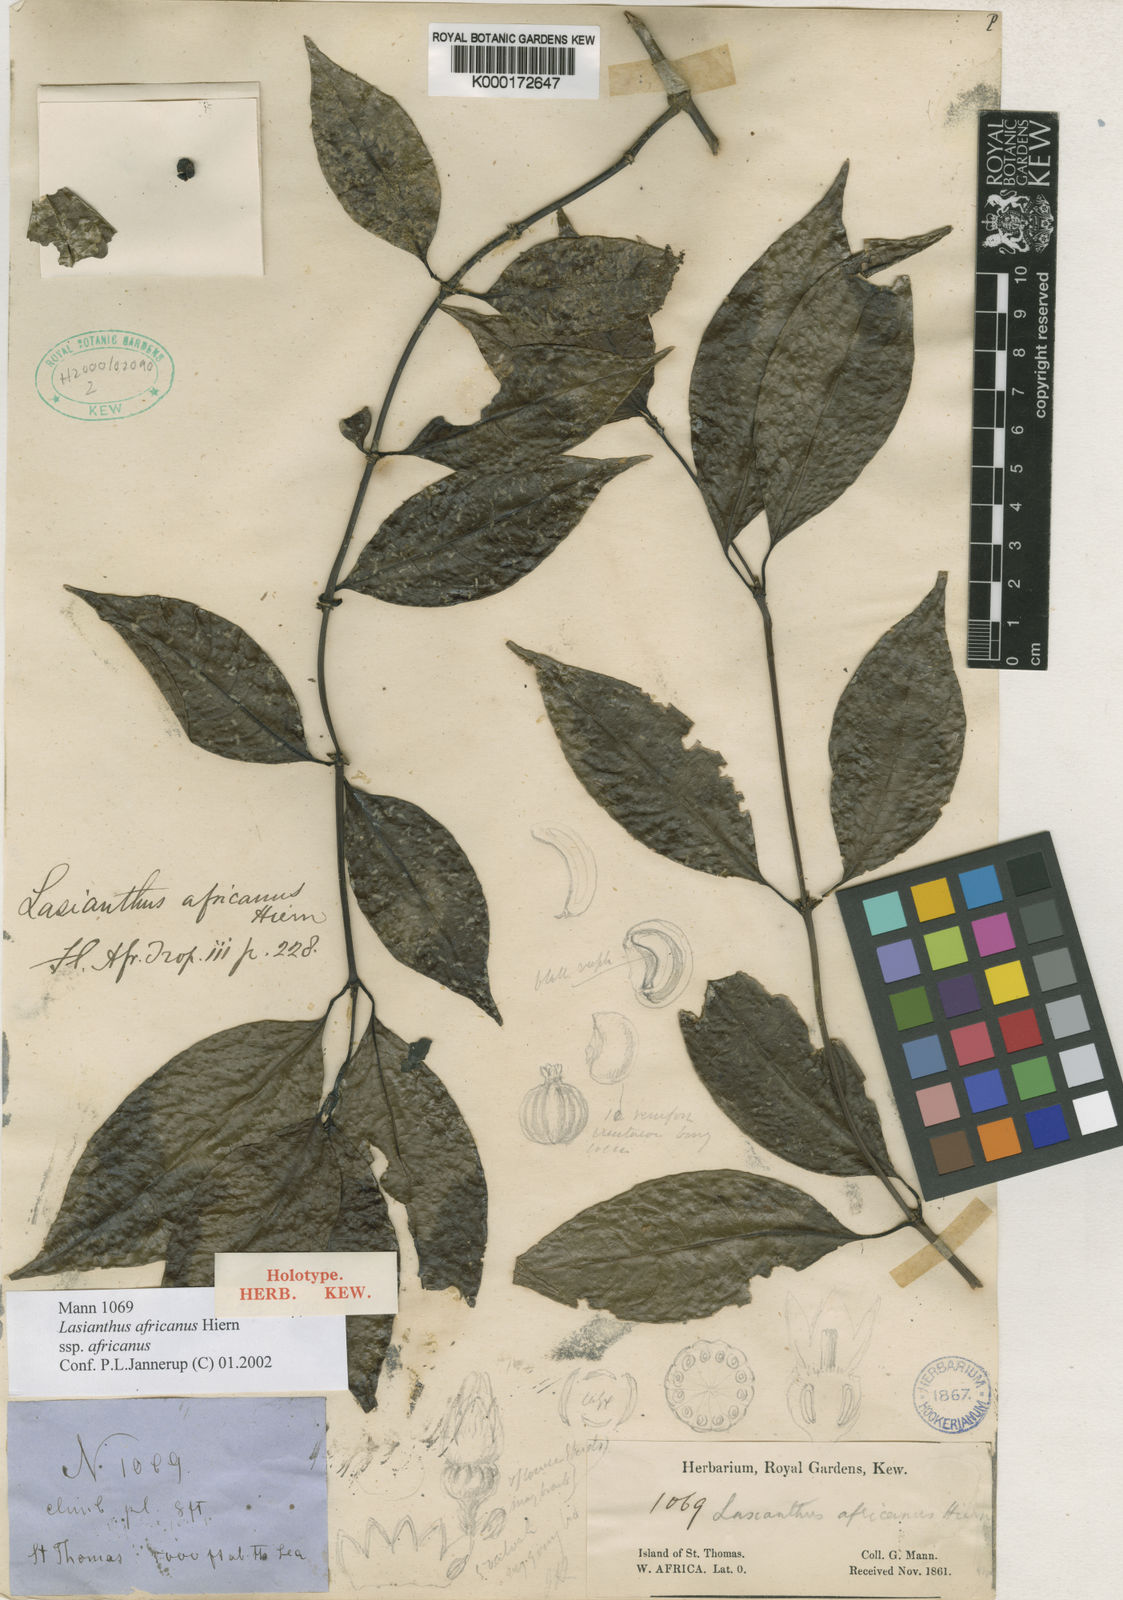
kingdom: Plantae
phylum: Tracheophyta
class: Magnoliopsida
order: Gentianales
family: Rubiaceae
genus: Lasianthus
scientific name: Lasianthus africanus
